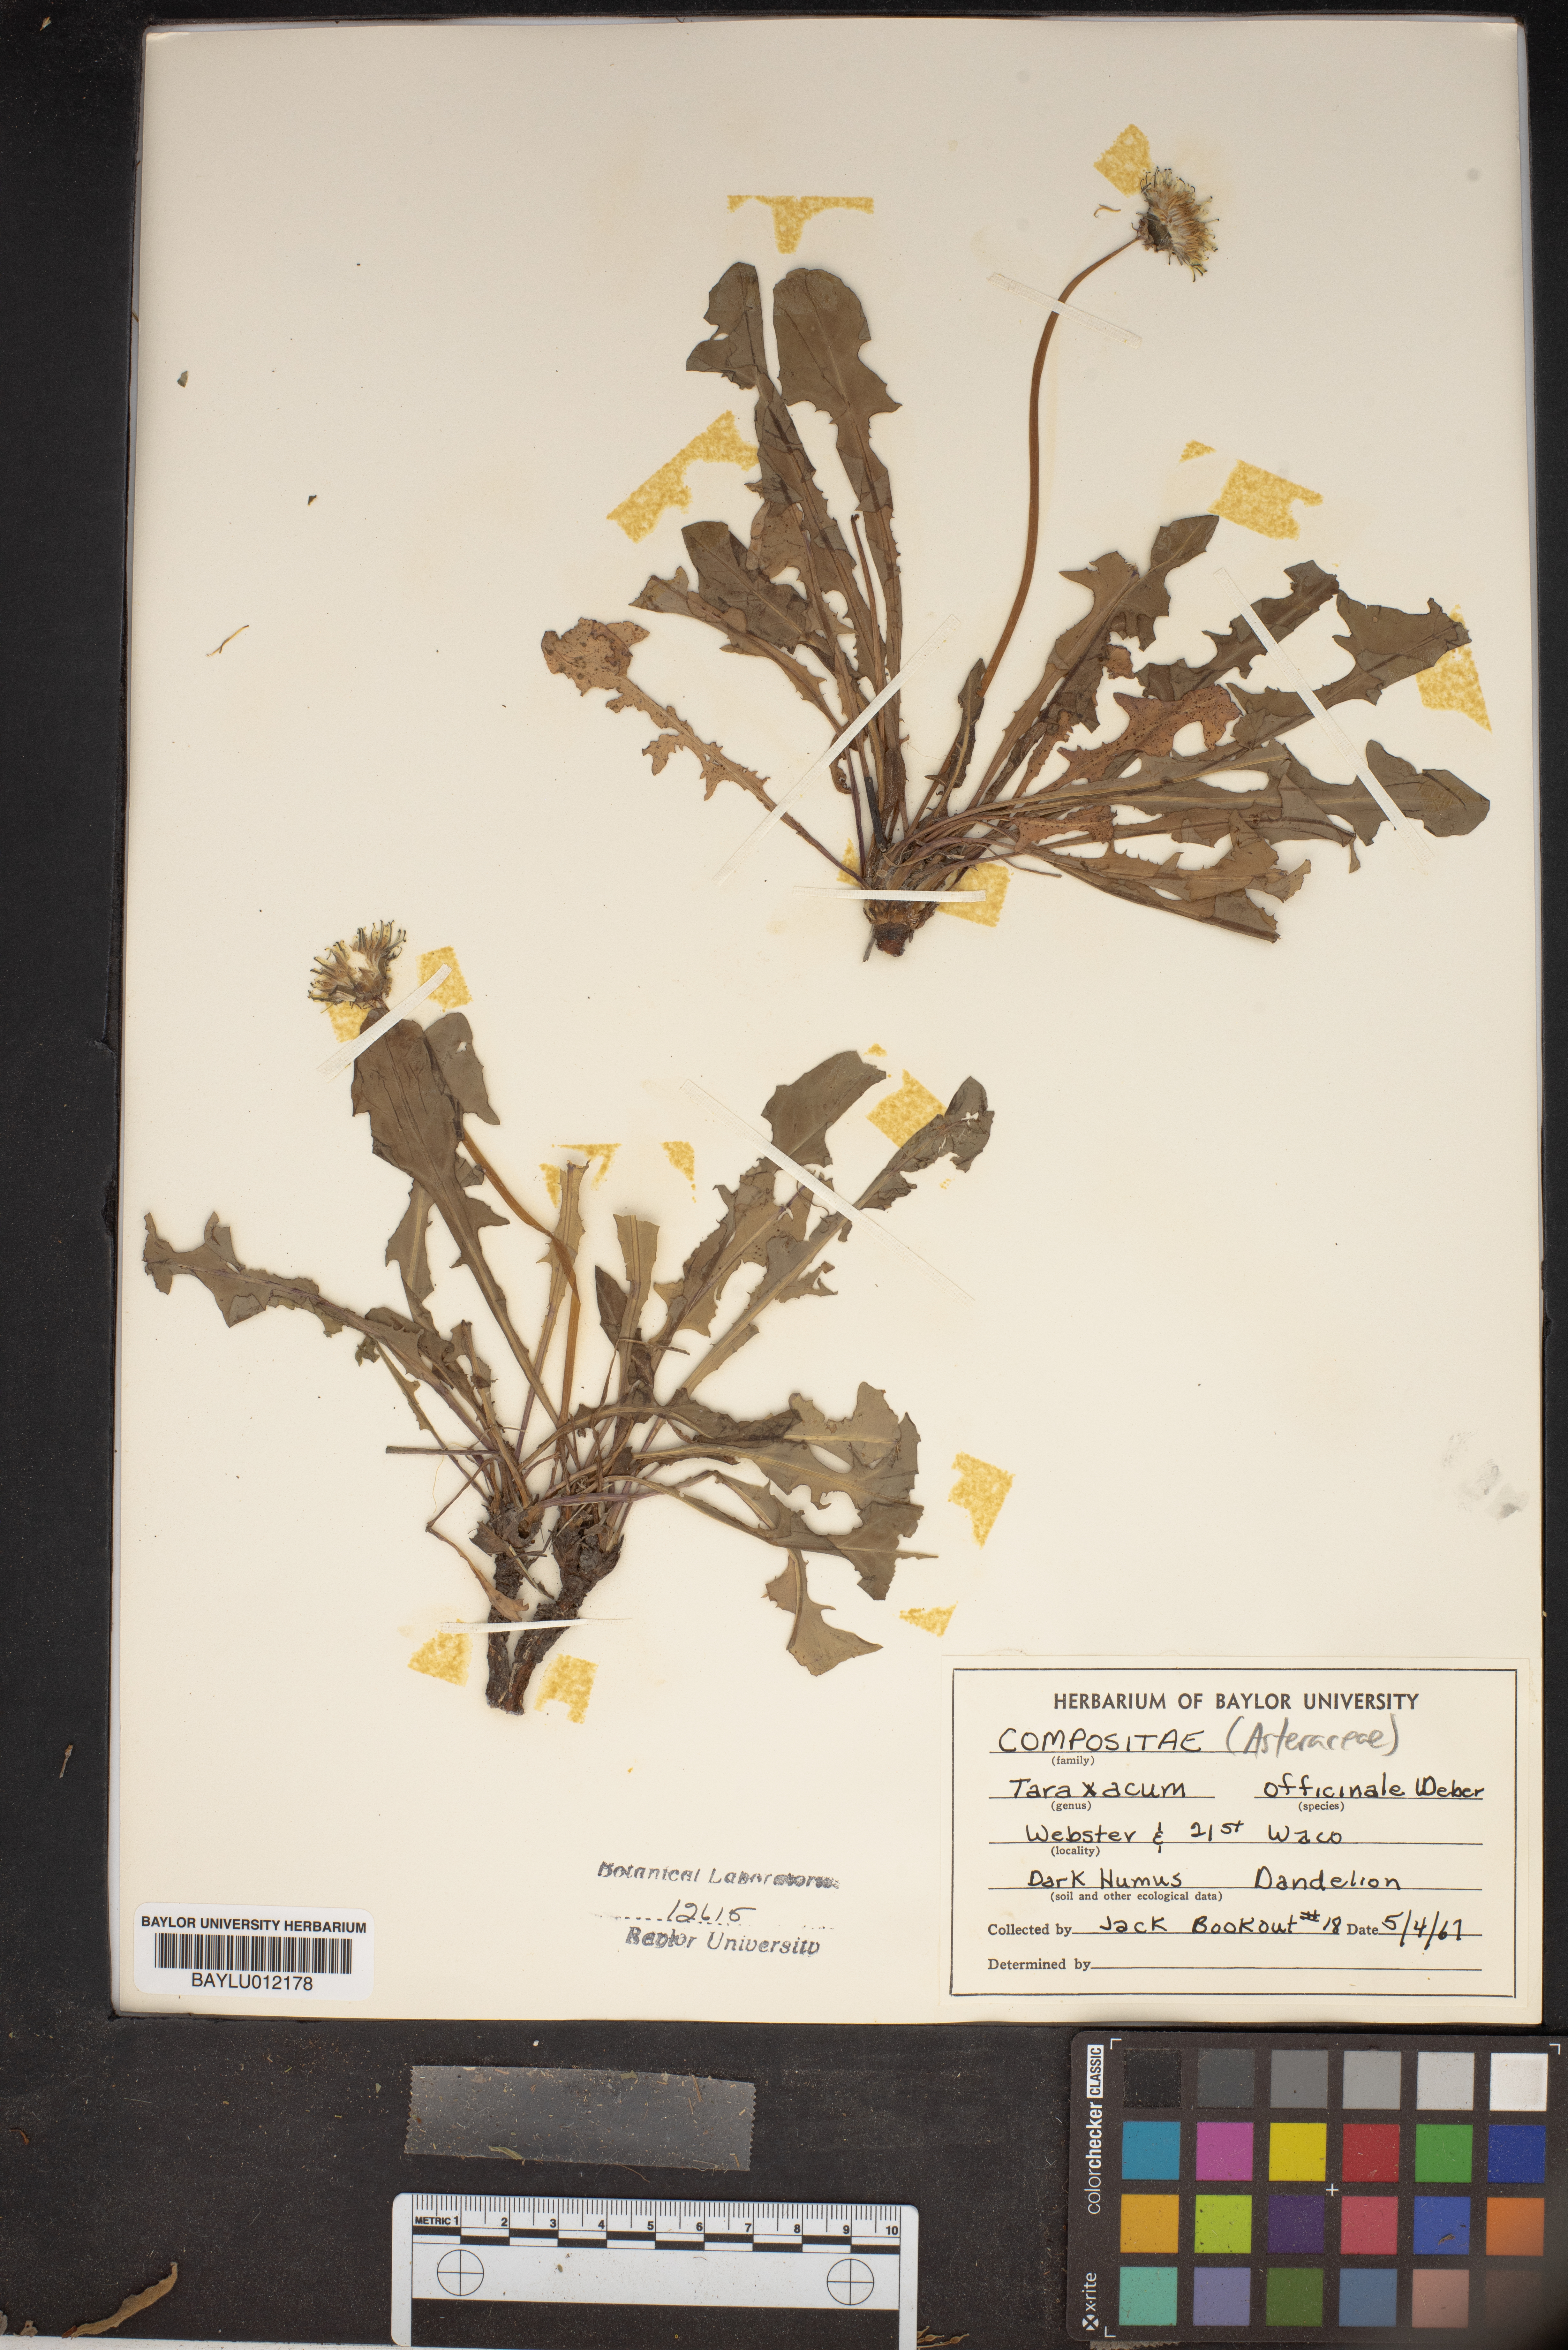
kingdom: Plantae
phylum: Tracheophyta
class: Magnoliopsida
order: Asterales
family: Asteraceae
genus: Taraxacum
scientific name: Taraxacum officinale
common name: Common dandelion
